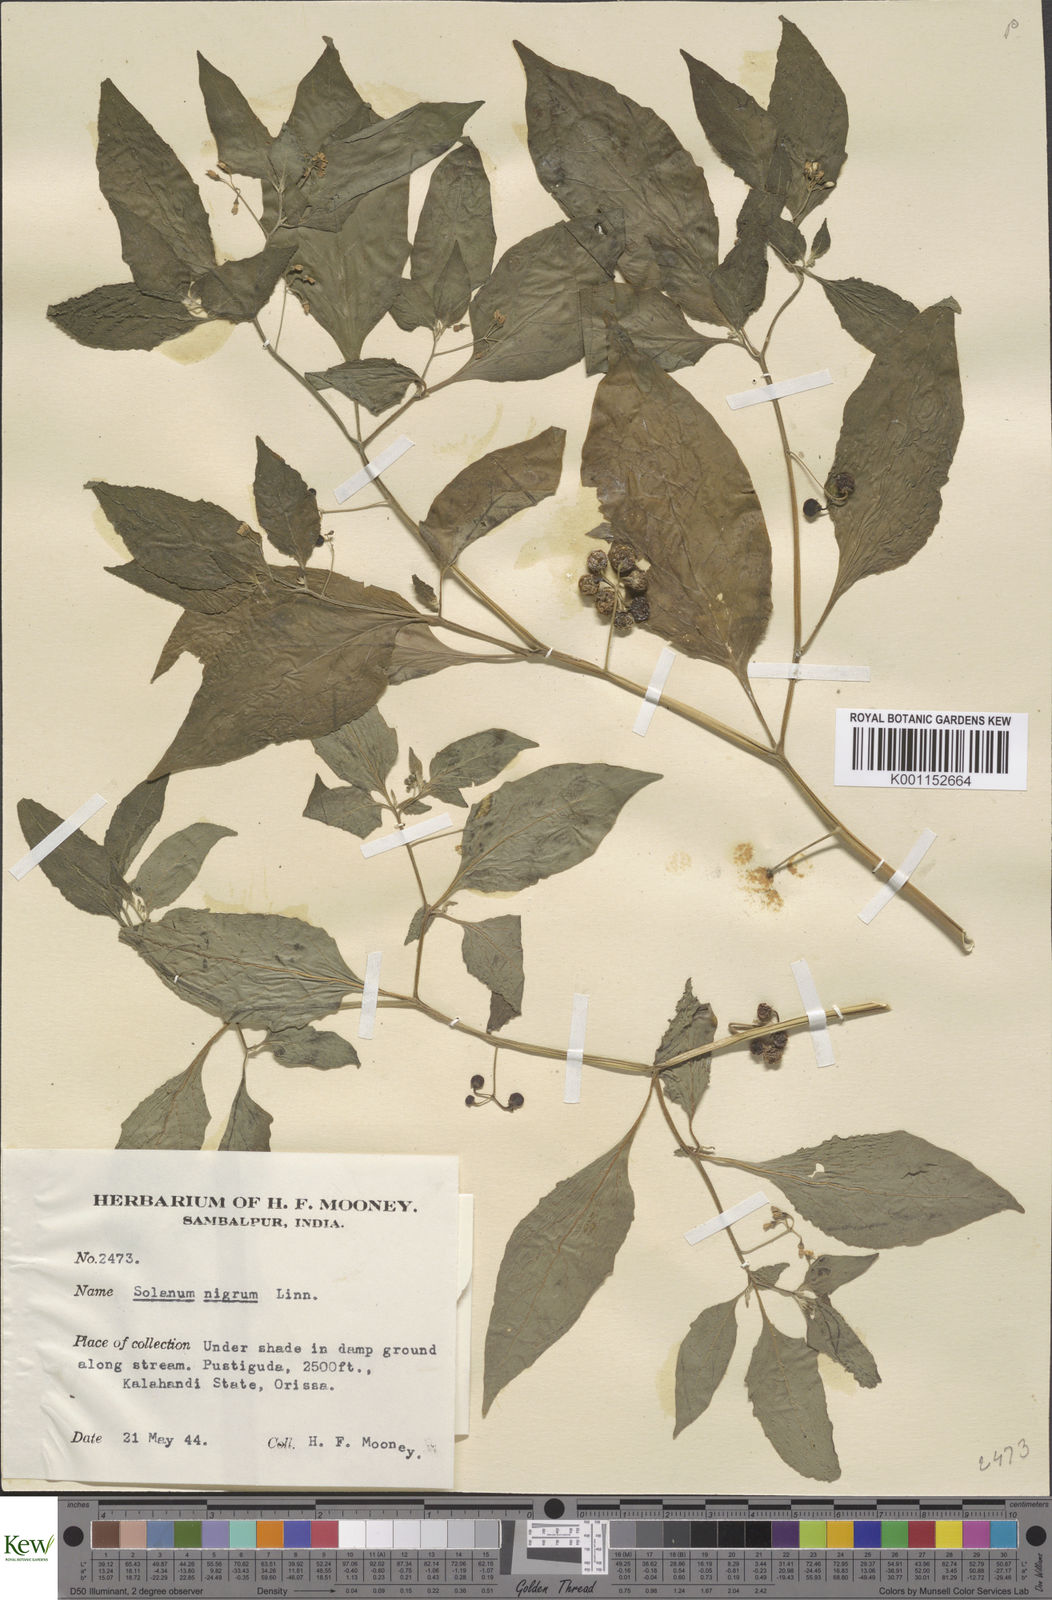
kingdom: Plantae
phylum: Tracheophyta
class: Magnoliopsida
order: Solanales
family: Solanaceae
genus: Solanum
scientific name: Solanum nigrum
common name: Black nightshade
